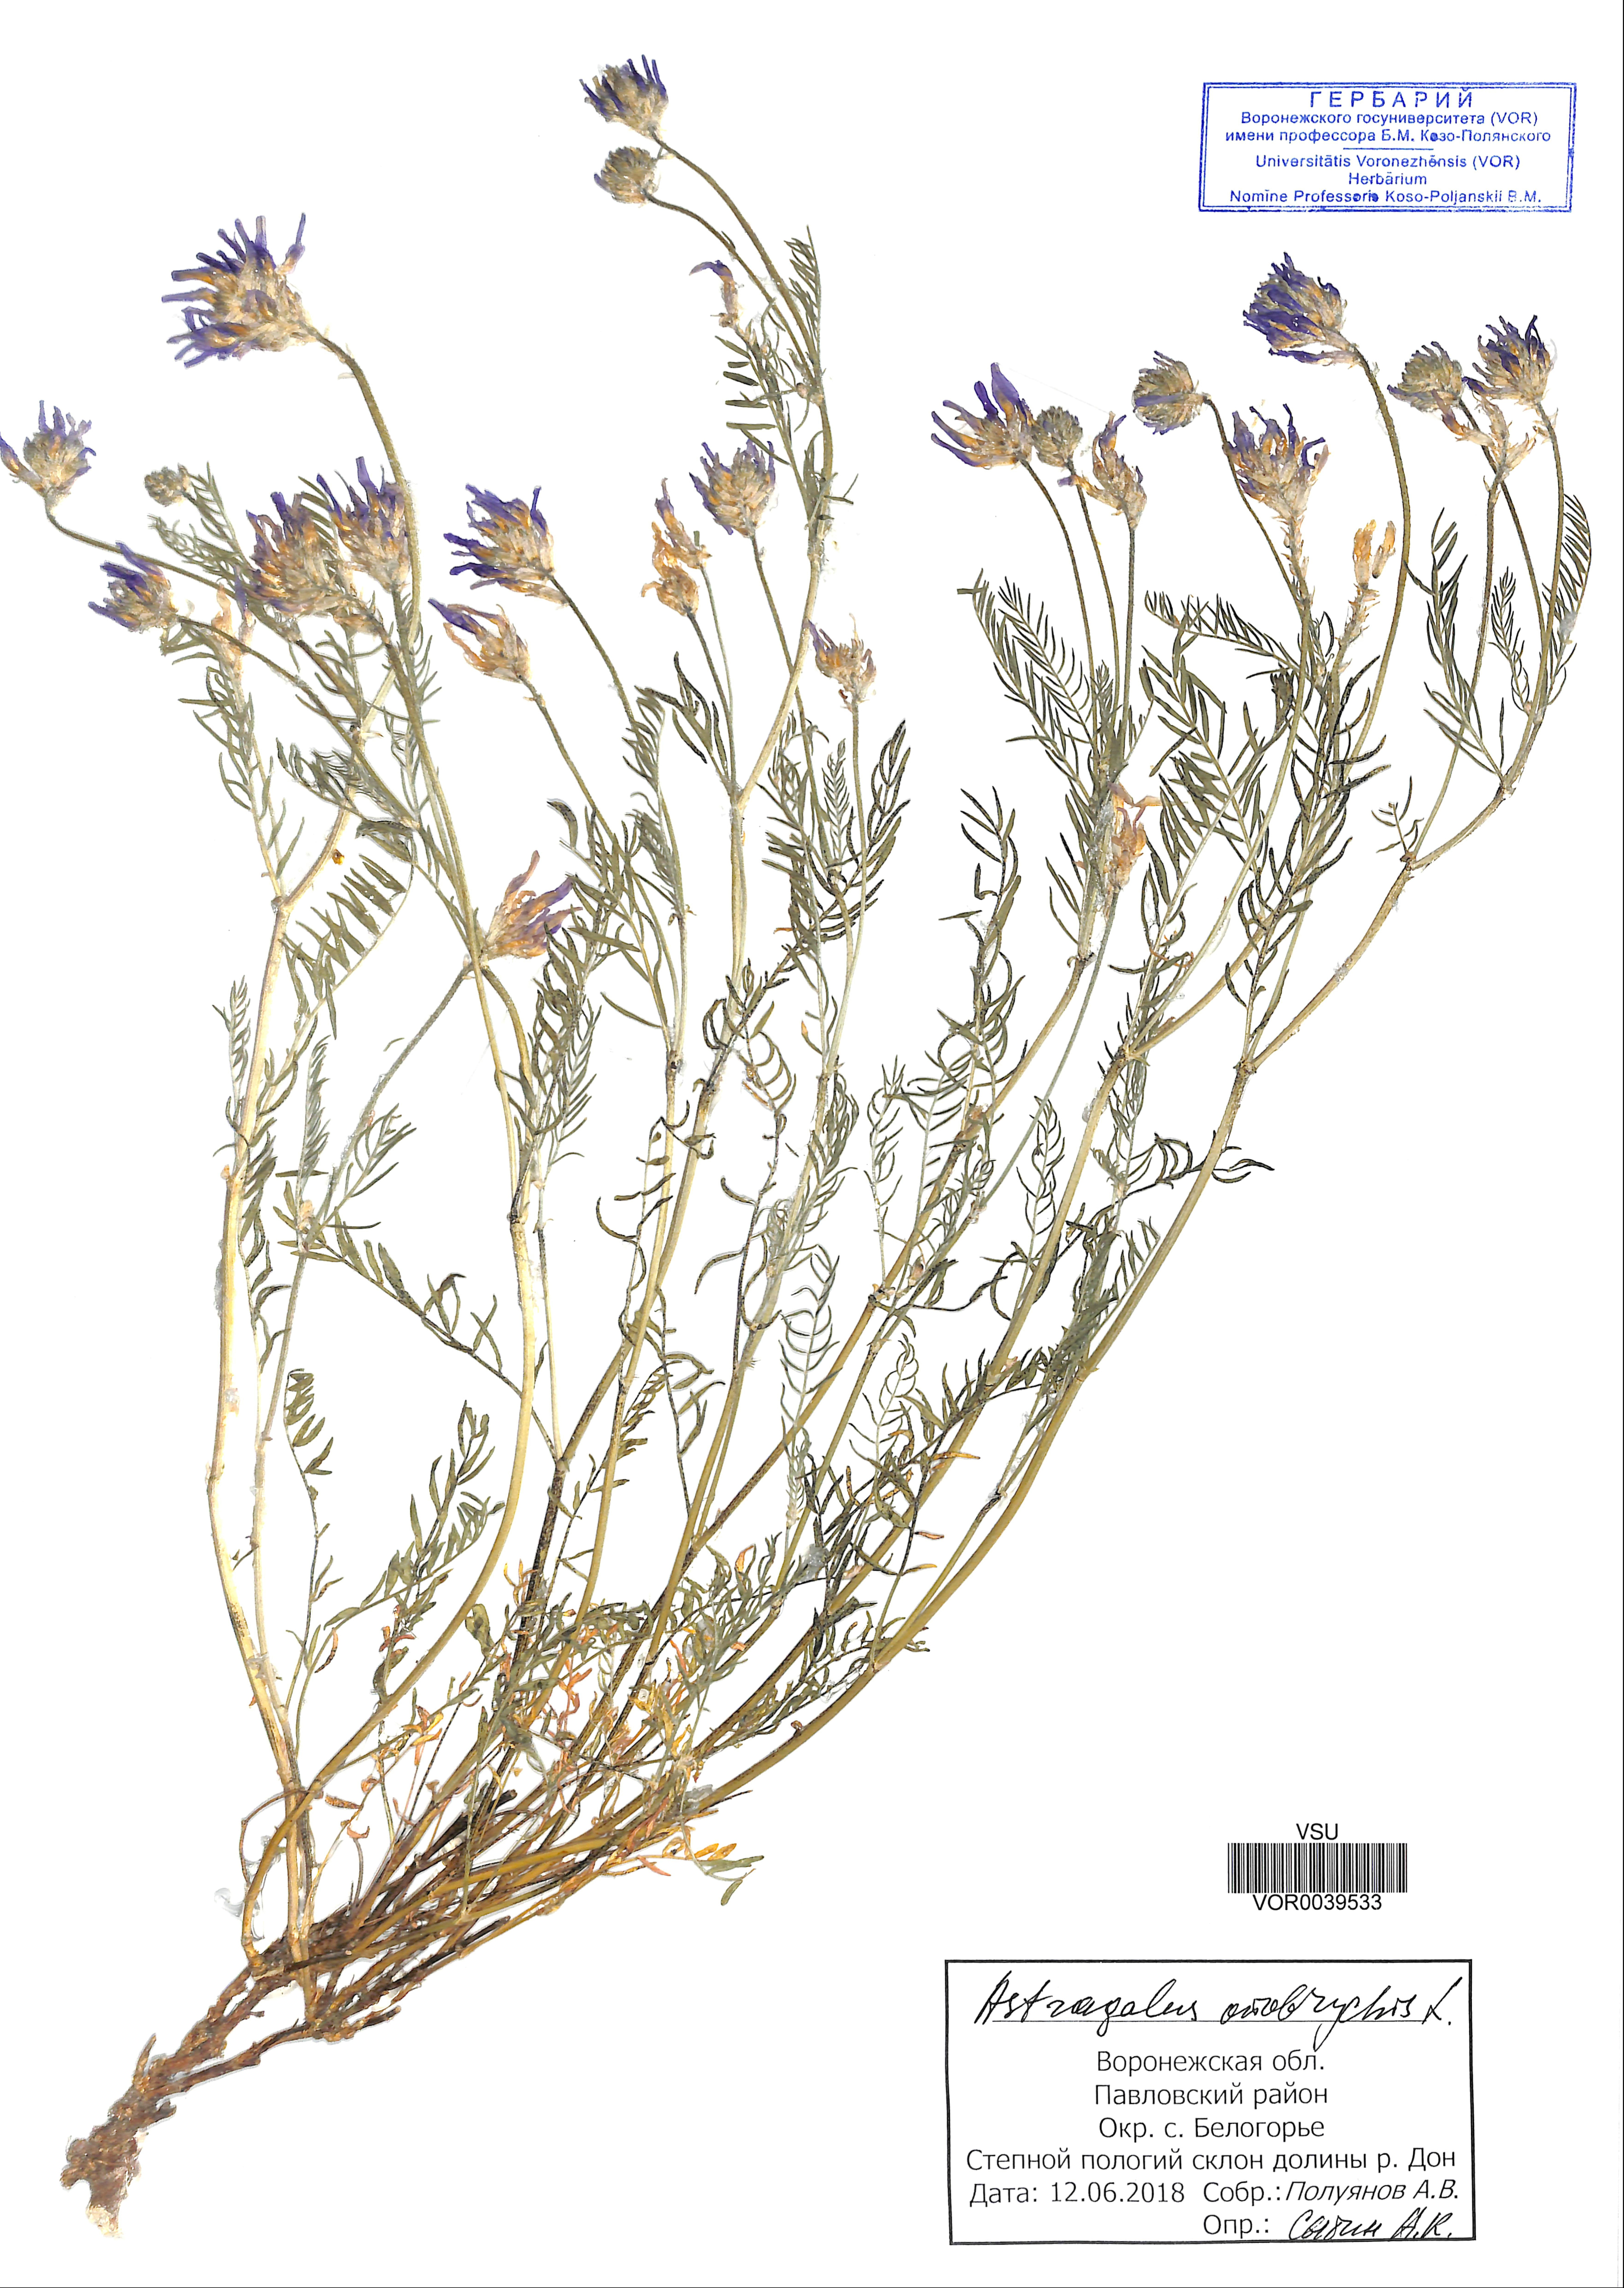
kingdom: Plantae
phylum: Tracheophyta
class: Magnoliopsida
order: Fabales
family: Fabaceae
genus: Astragalus
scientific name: Astragalus onobrychis
